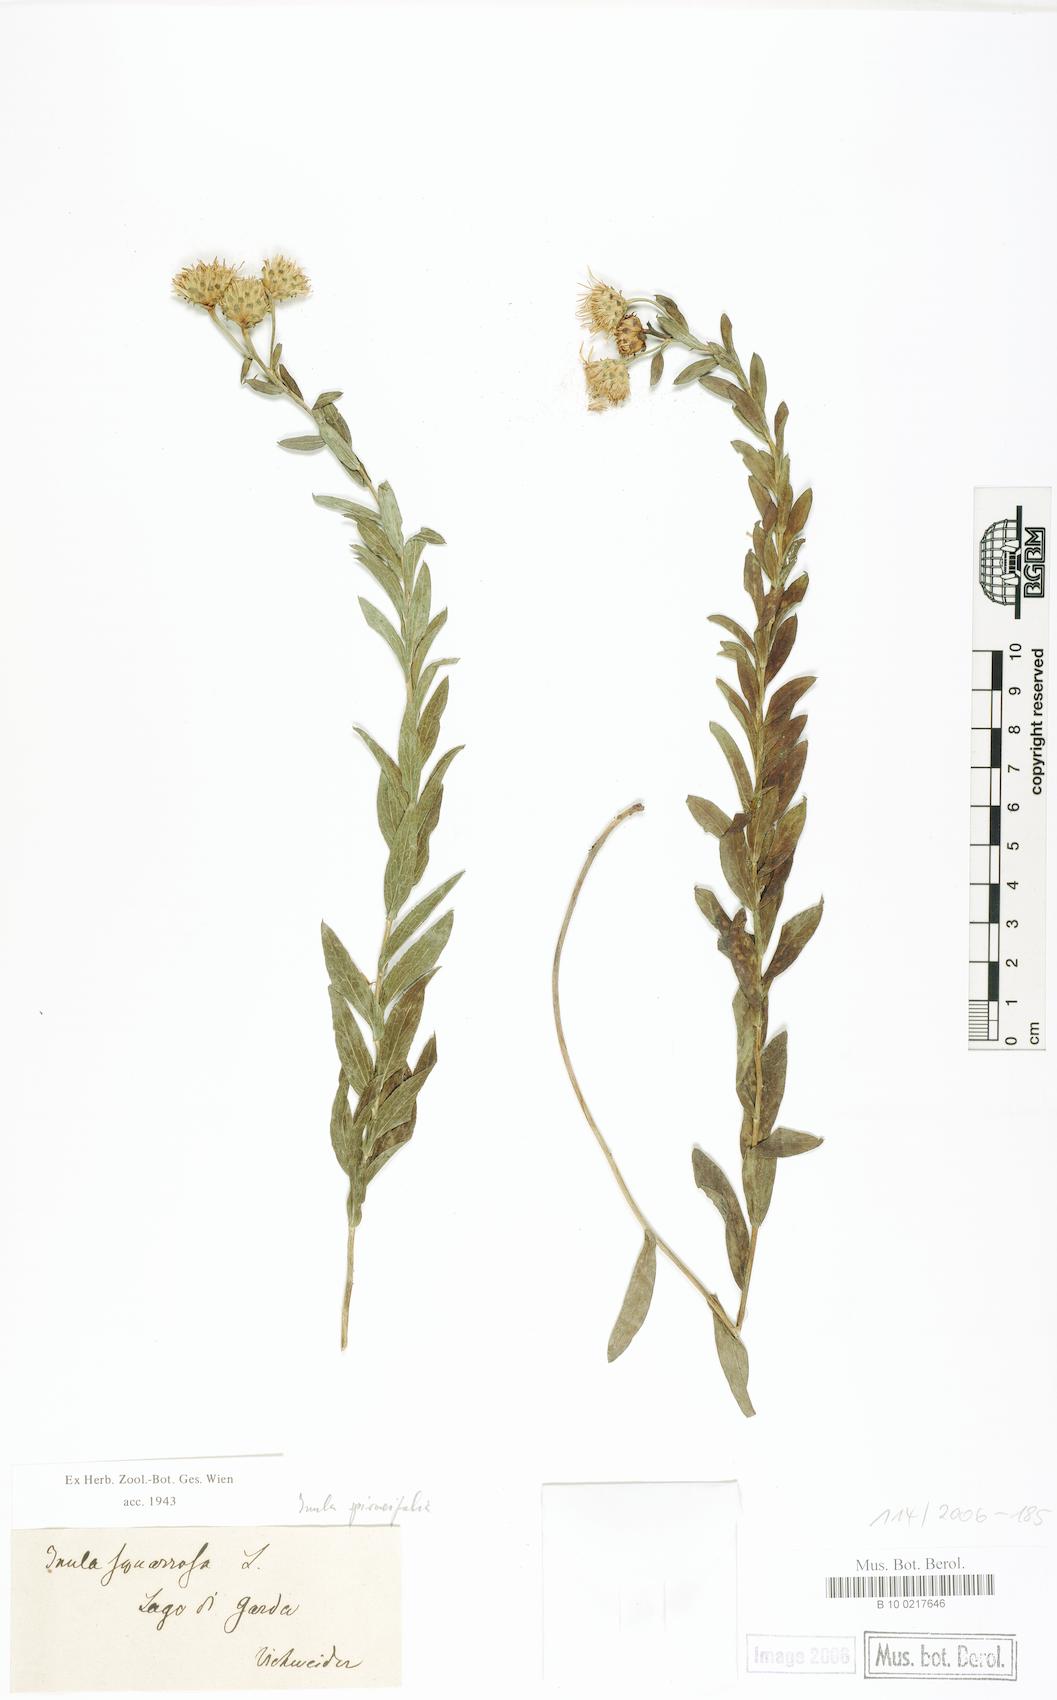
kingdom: Plantae
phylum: Tracheophyta
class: Magnoliopsida
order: Asterales
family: Asteraceae
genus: Pentanema
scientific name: Pentanema spiraeifolium
